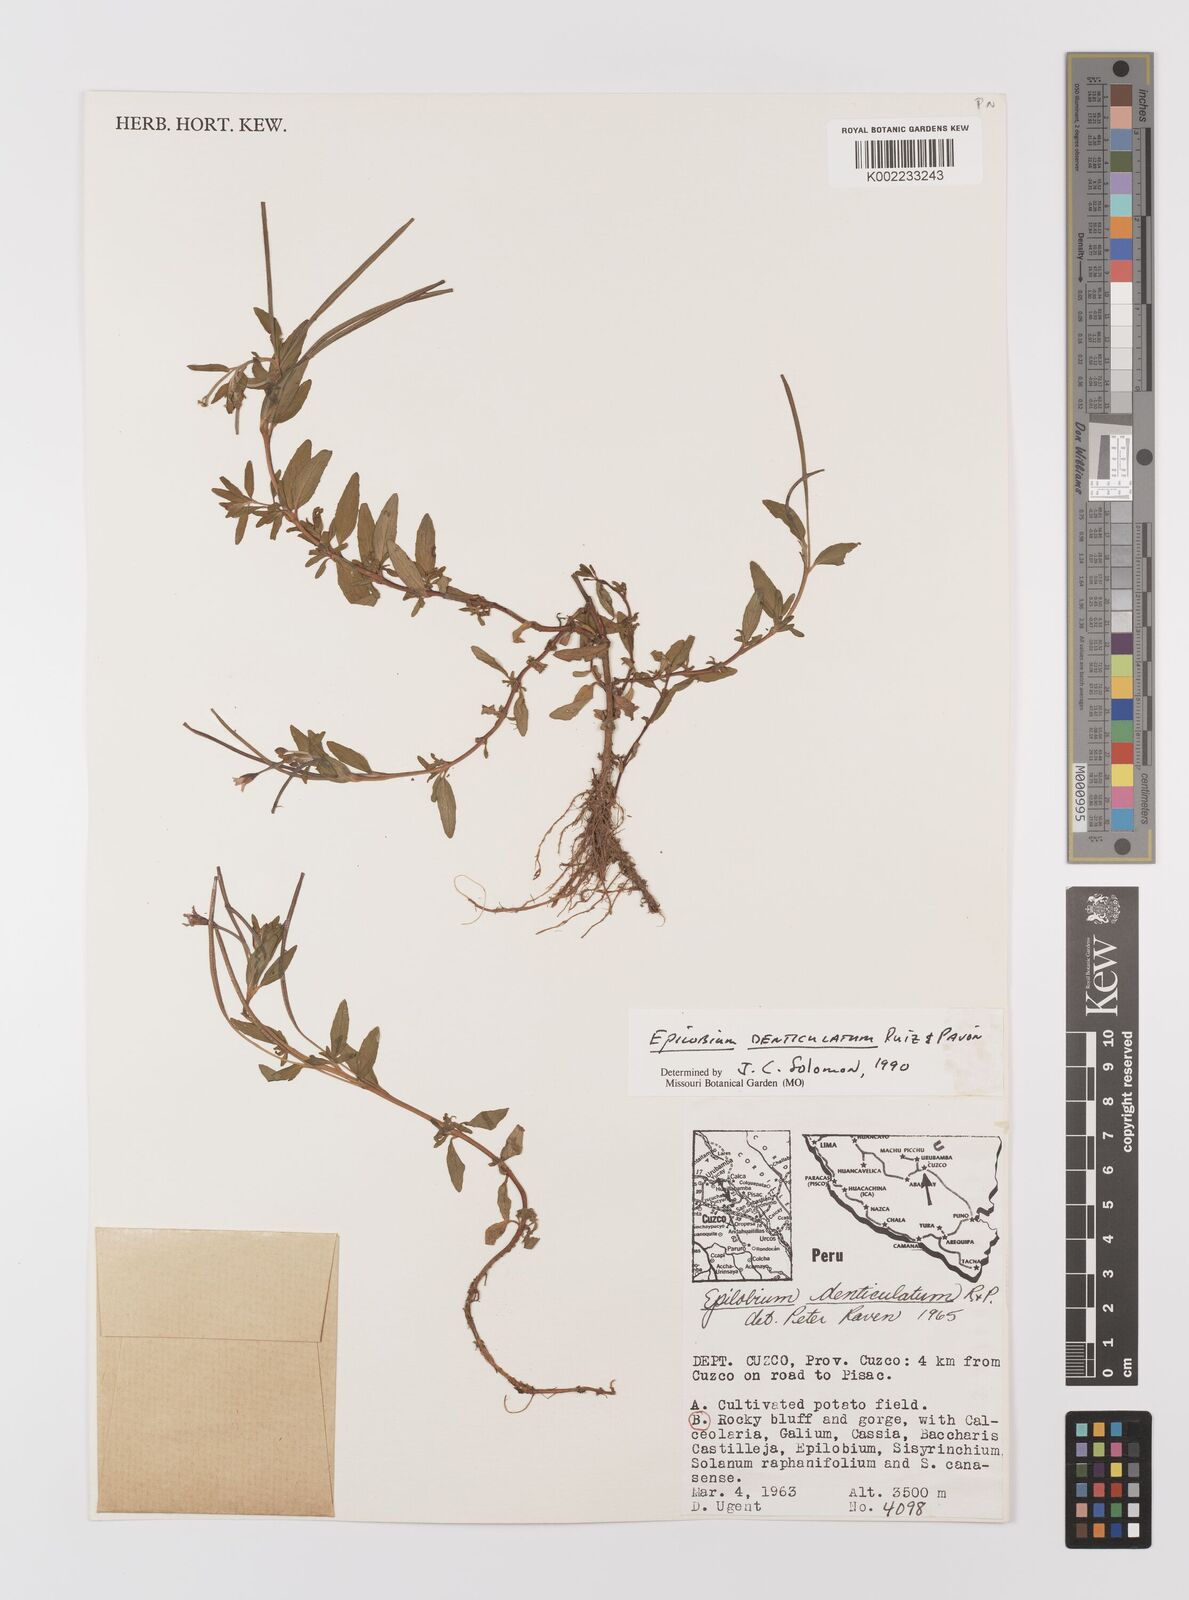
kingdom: Plantae
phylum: Tracheophyta
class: Magnoliopsida
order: Myrtales
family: Onagraceae
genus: Epilobium
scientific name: Epilobium denticulatum
